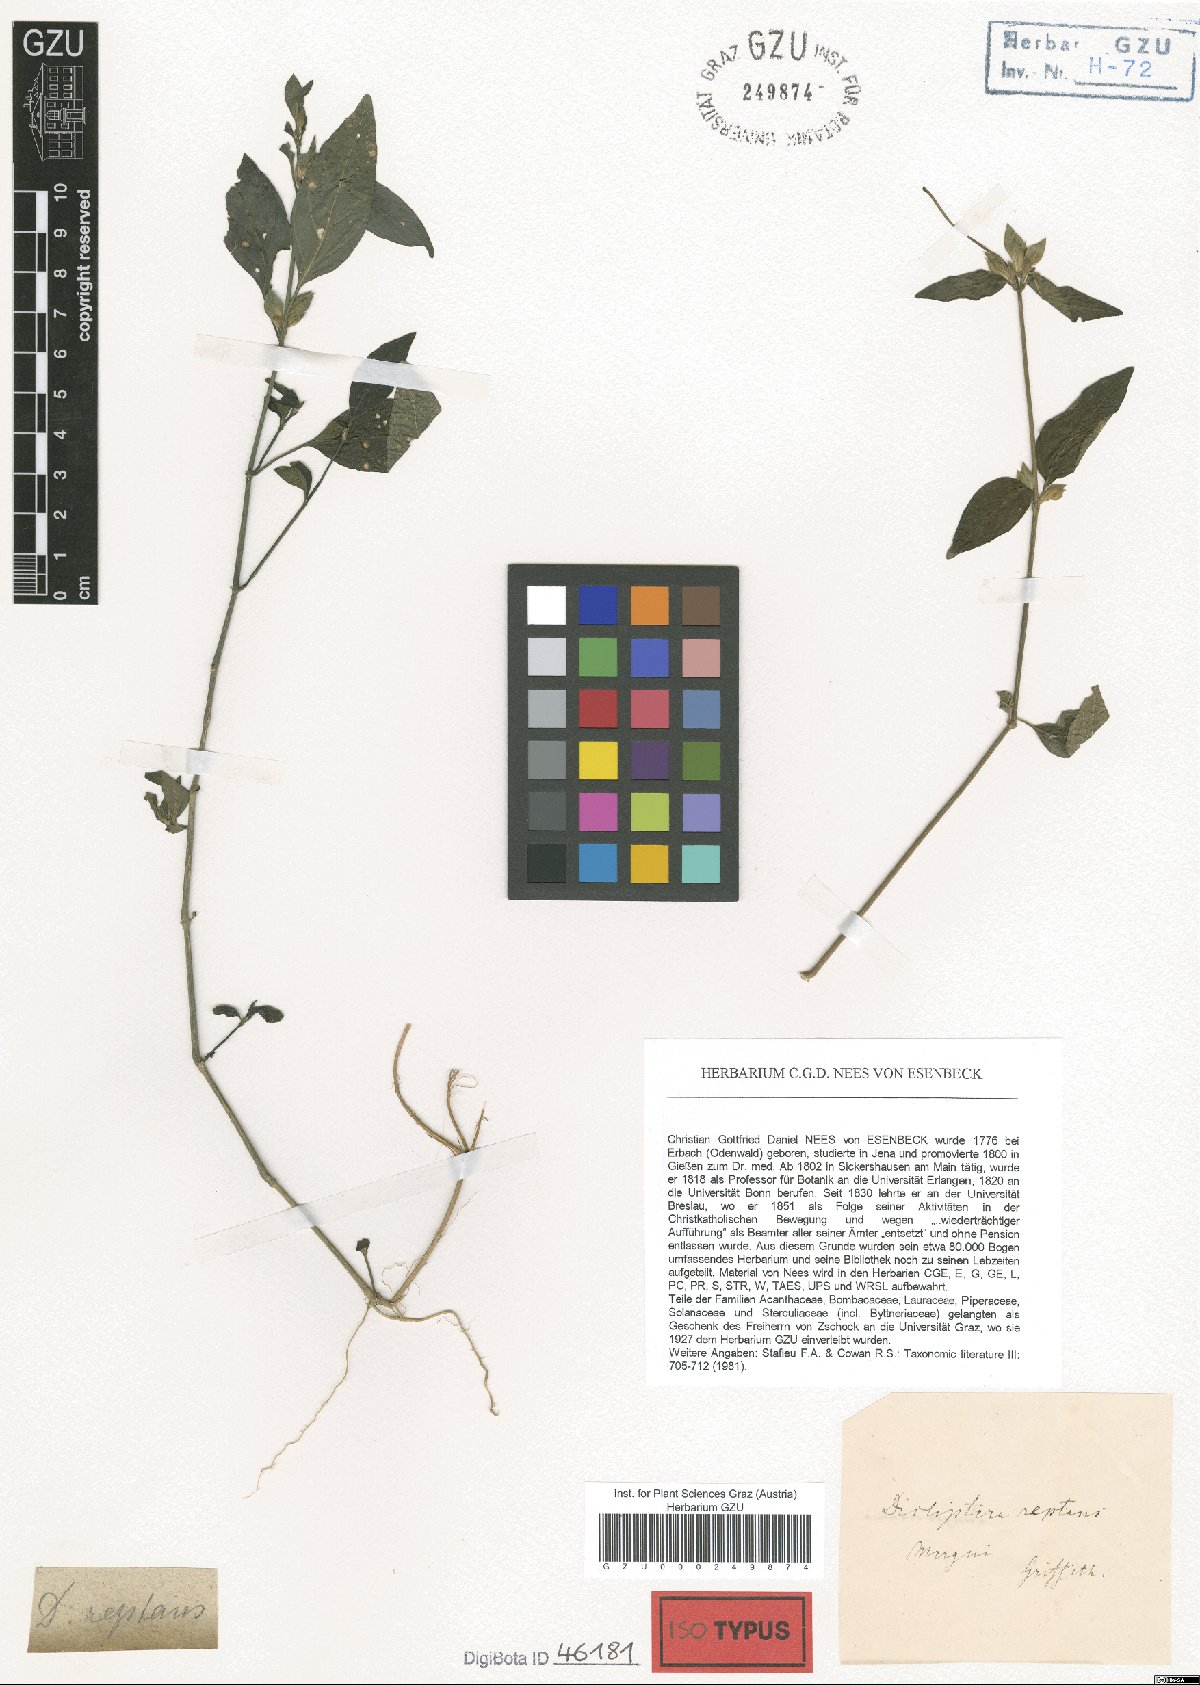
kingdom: Plantae
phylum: Tracheophyta
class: Magnoliopsida
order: Lamiales
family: Acanthaceae
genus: Dicliptera
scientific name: Dicliptera reptans
